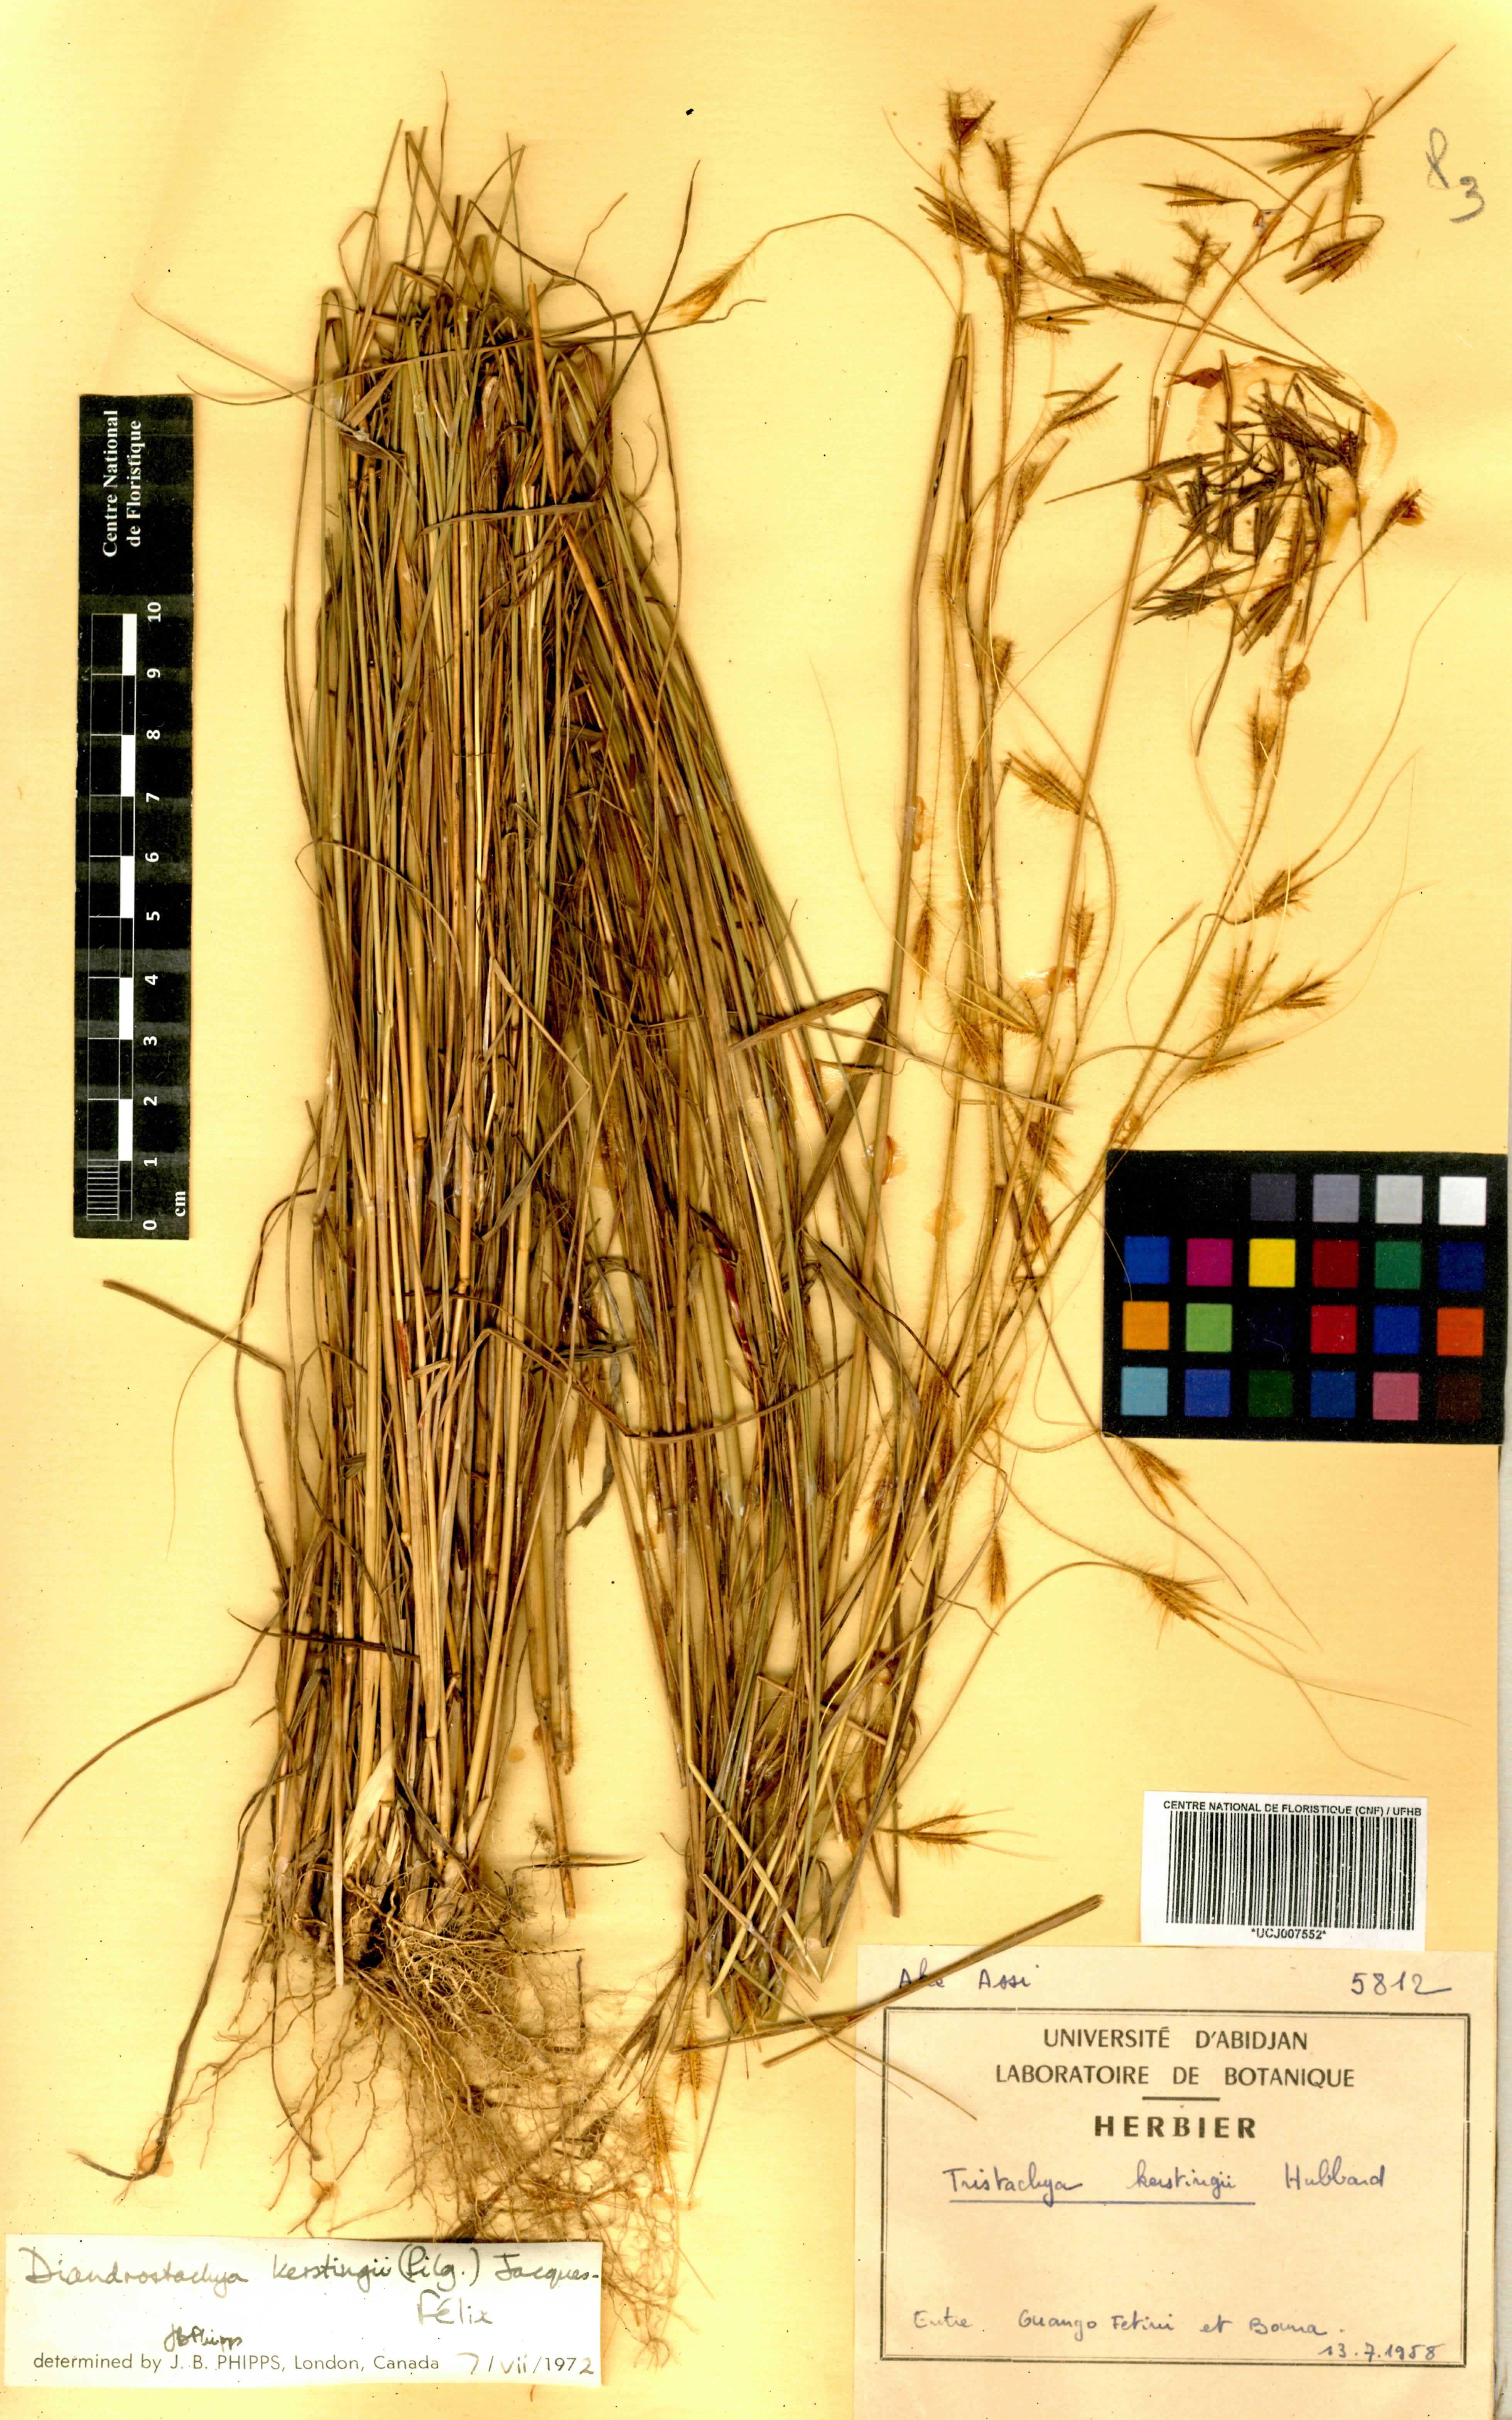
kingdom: Plantae
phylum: Tracheophyta
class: Liliopsida
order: Poales
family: Poaceae
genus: Loudetiopsis
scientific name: Loudetiopsis kerstingii
